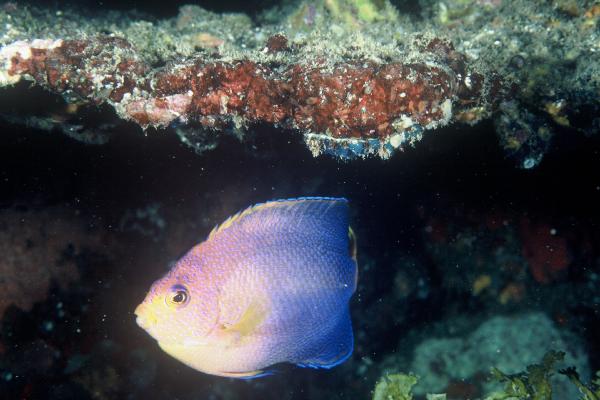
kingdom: Animalia
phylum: Chordata
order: Perciformes
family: Pomacanthidae
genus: Centropyge
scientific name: Centropyge interrupta
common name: Japanese angelfish
